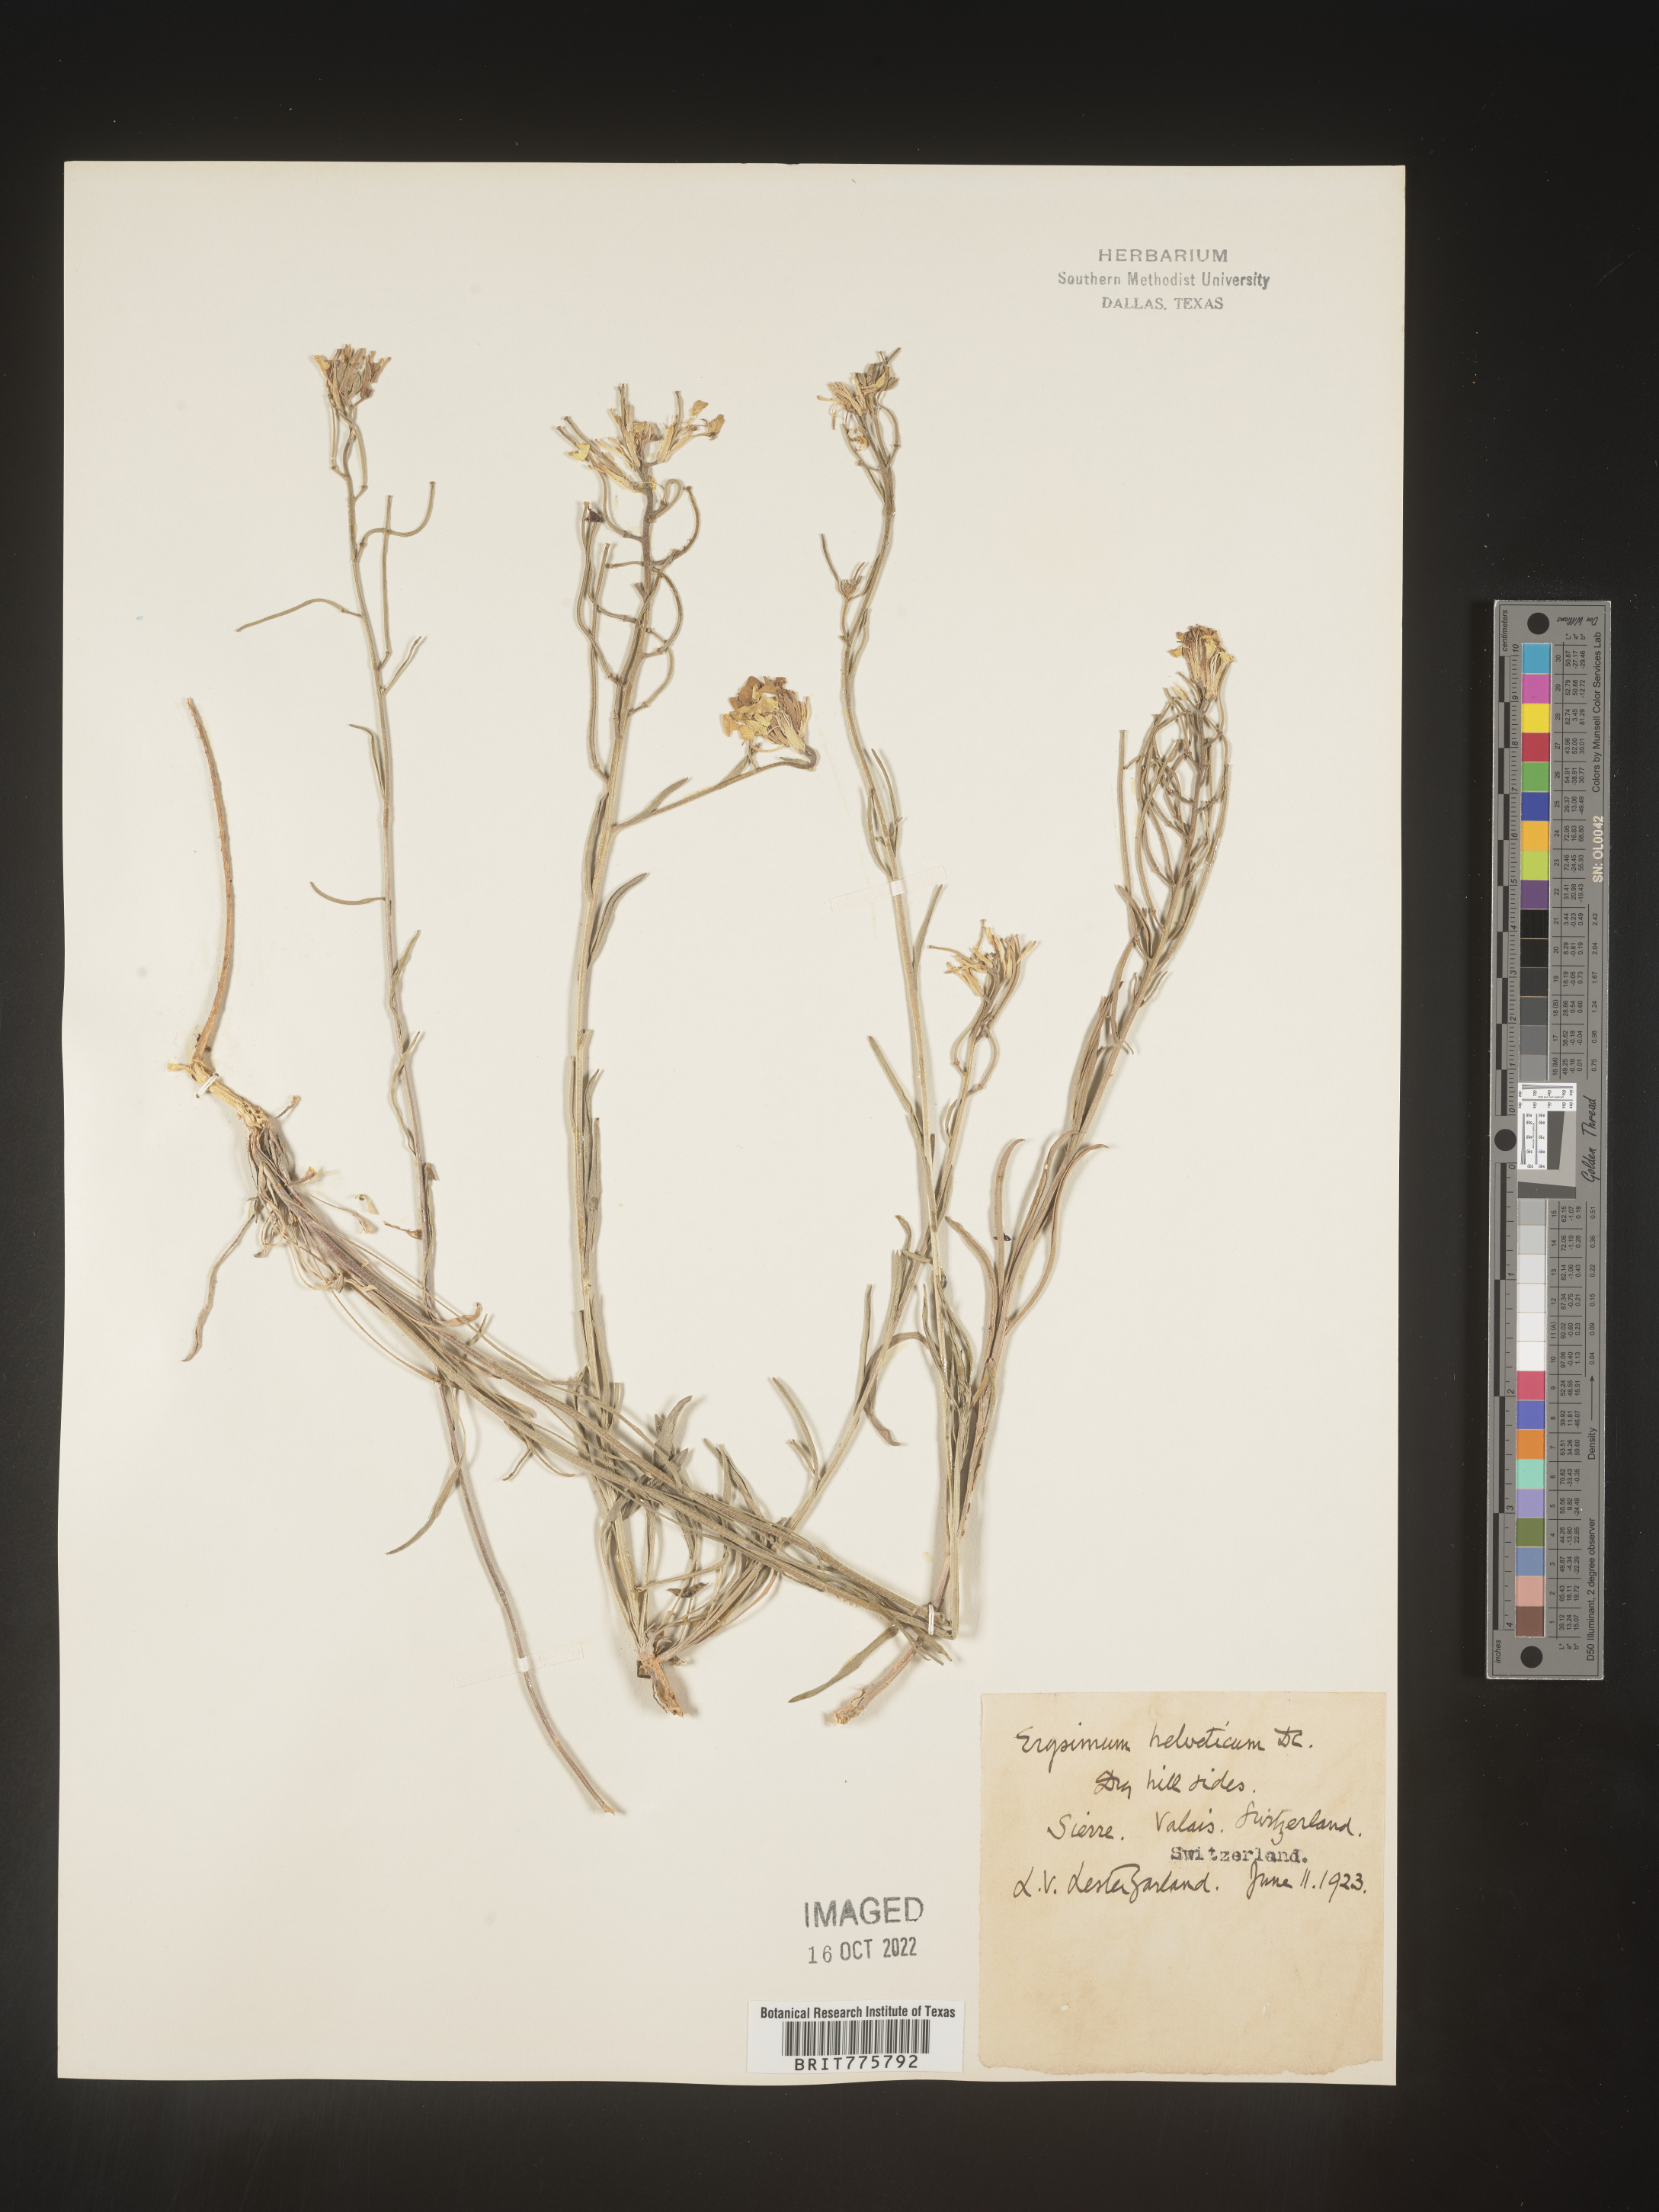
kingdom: Plantae
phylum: Tracheophyta
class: Magnoliopsida
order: Brassicales
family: Brassicaceae
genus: Erysimum
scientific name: Erysimum
